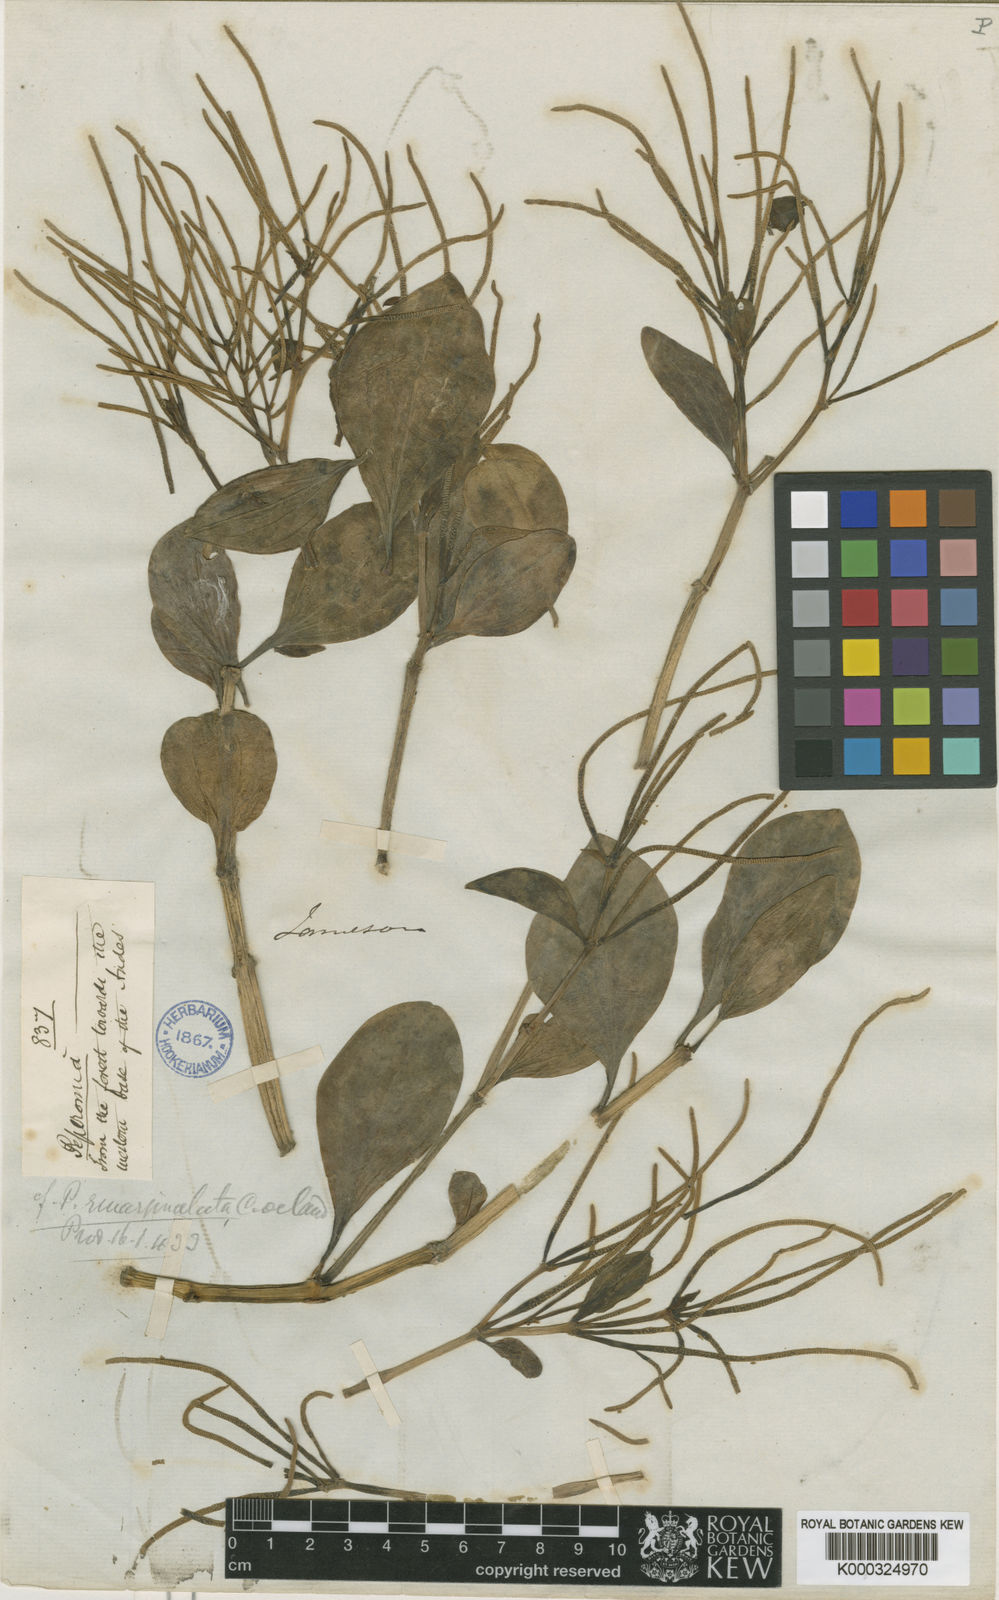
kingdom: Plantae
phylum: Tracheophyta
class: Magnoliopsida
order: Piperales
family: Piperaceae
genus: Peperomia
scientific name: Peperomia emarginata
